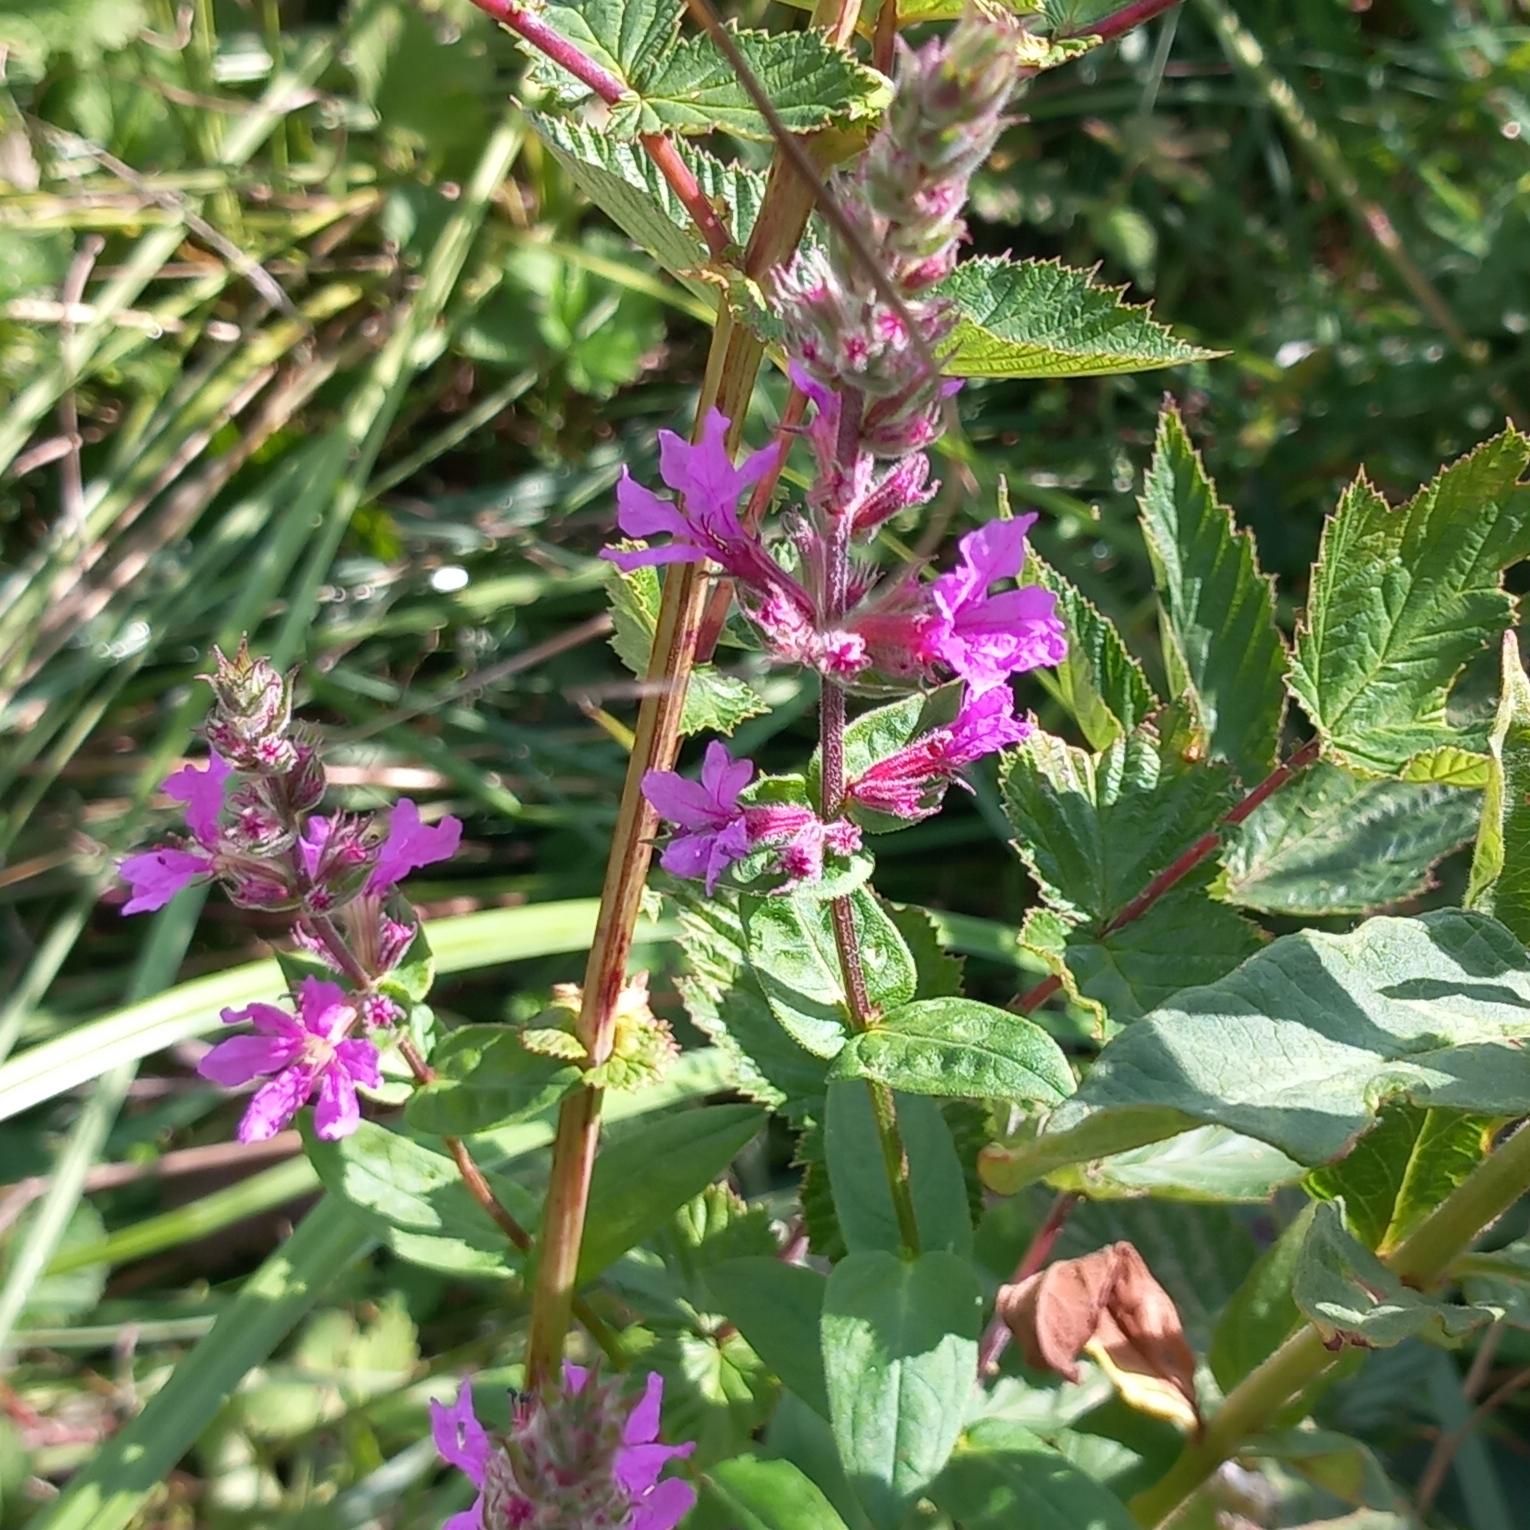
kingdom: Plantae
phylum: Tracheophyta
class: Magnoliopsida
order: Myrtales
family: Lythraceae
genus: Lythrum
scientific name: Lythrum salicaria
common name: Kattehale
